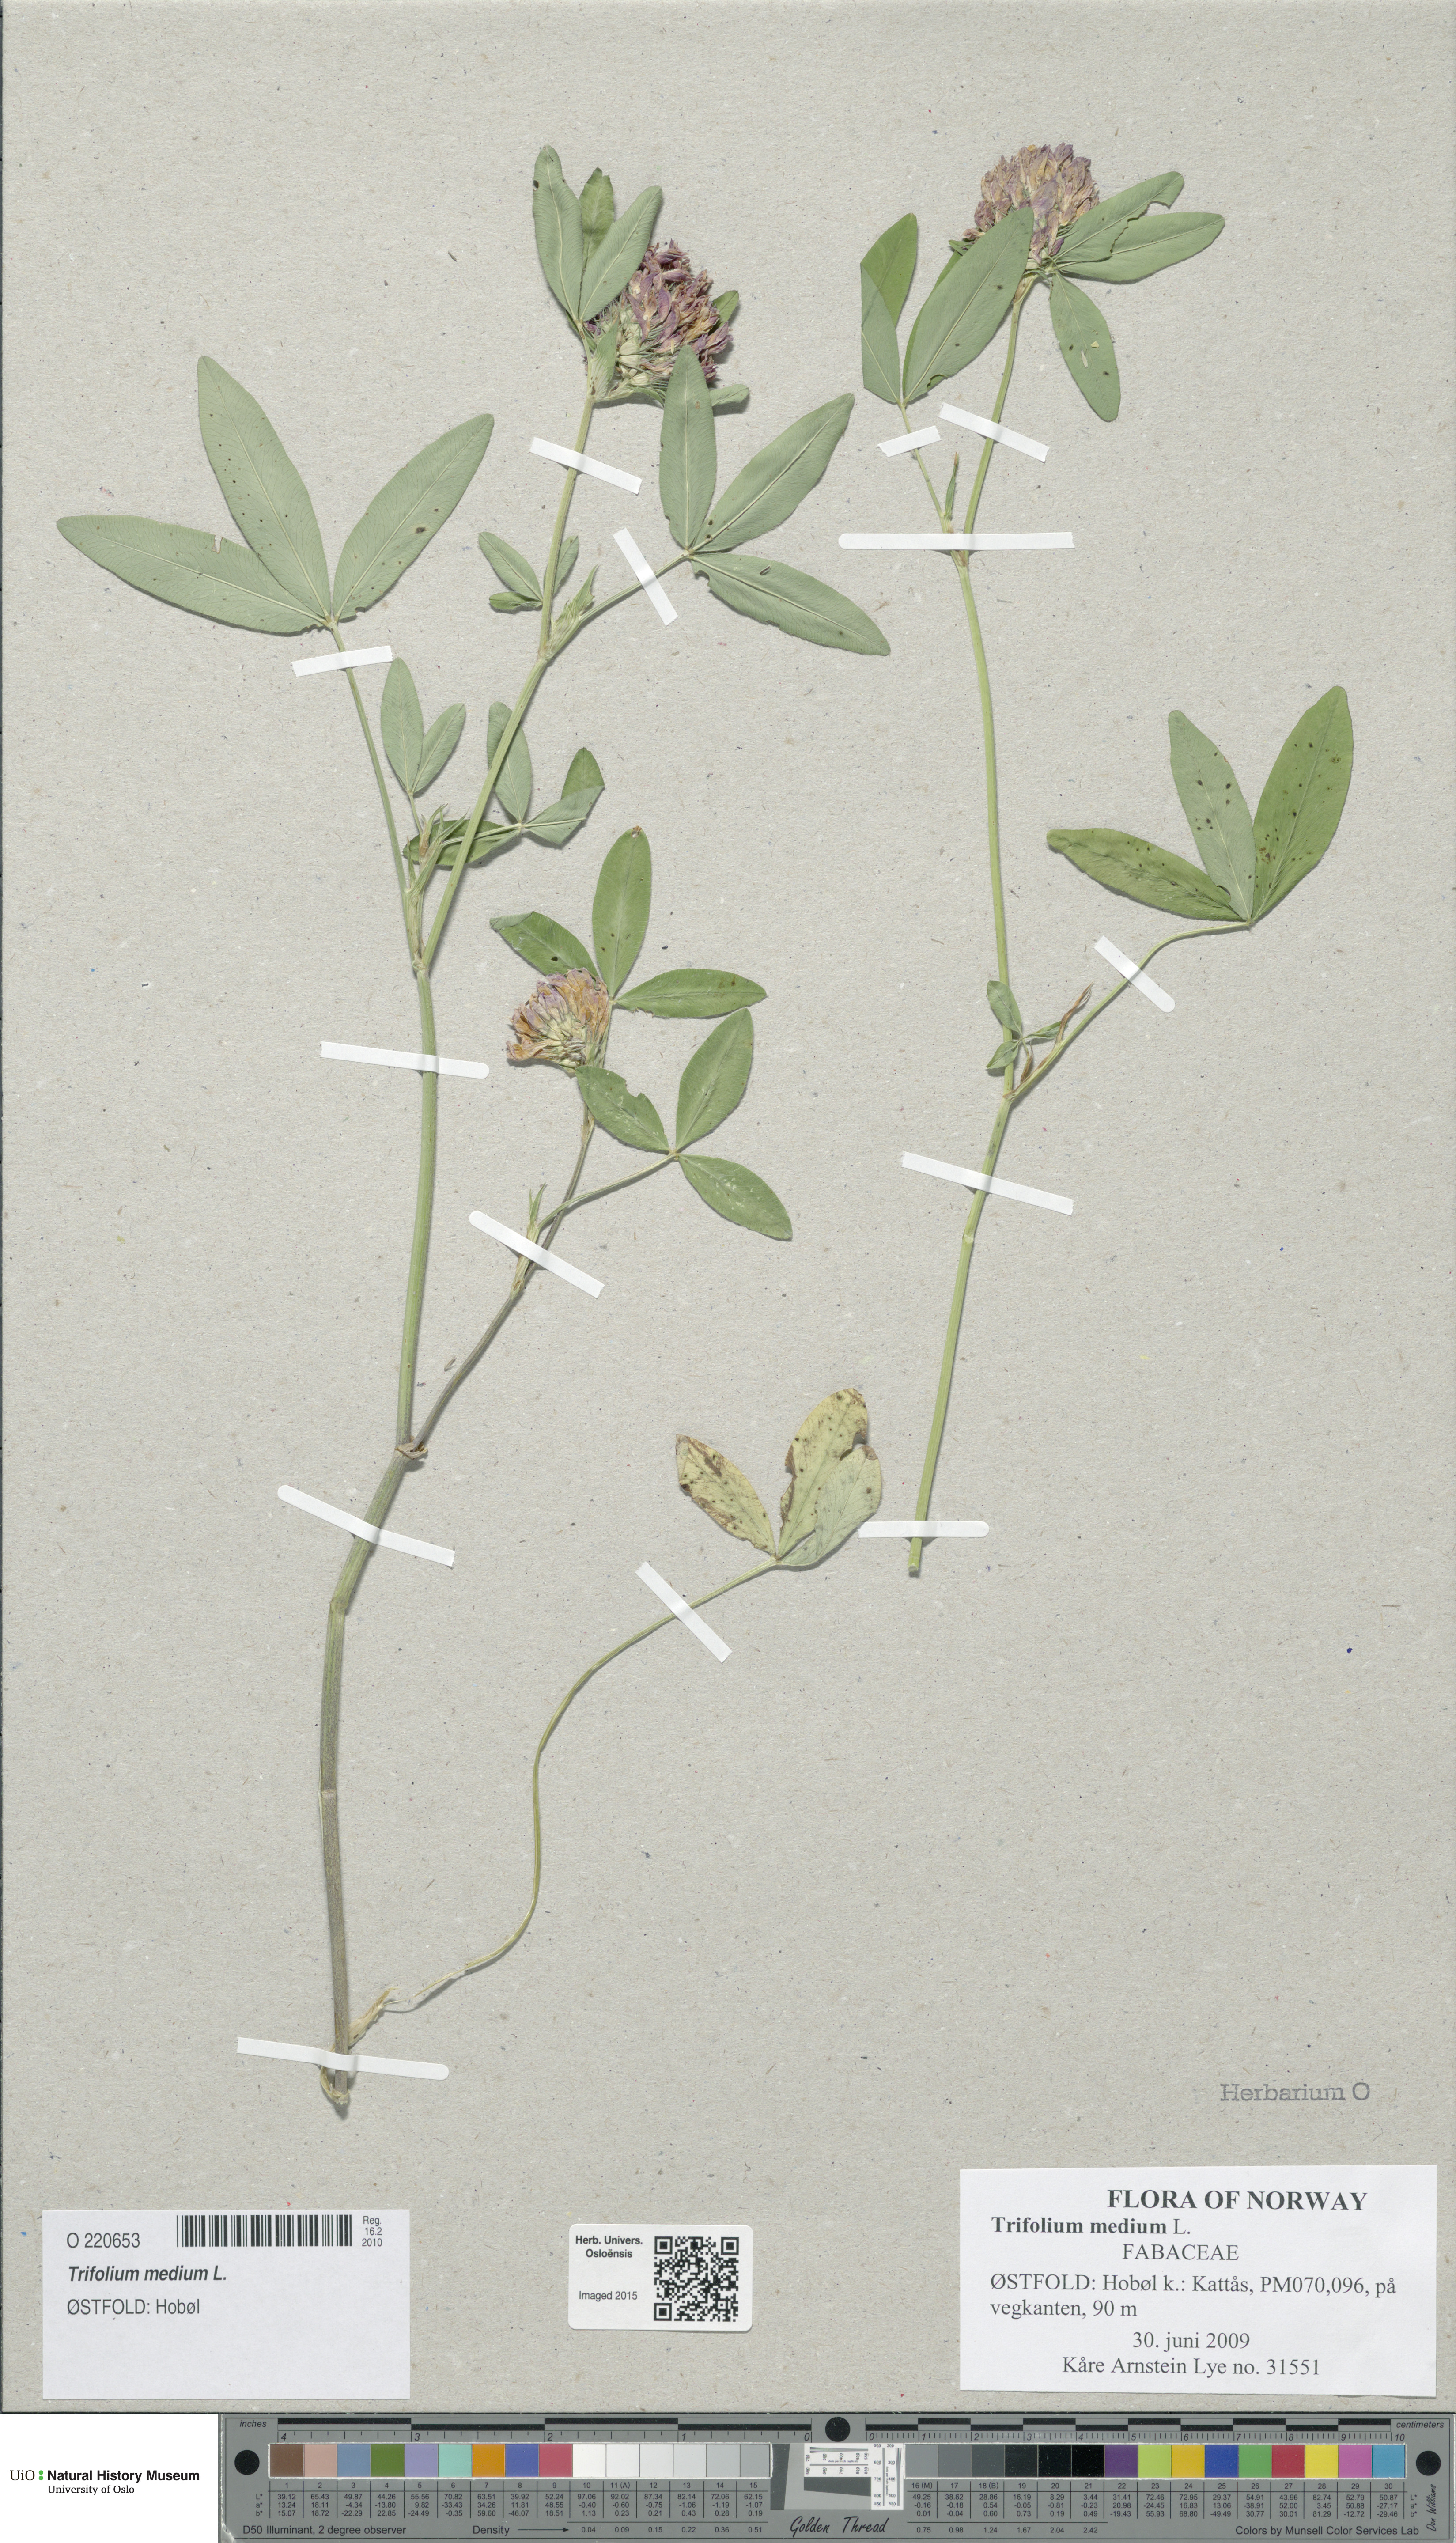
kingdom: Plantae
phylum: Tracheophyta
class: Magnoliopsida
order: Fabales
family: Fabaceae
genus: Trifolium
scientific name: Trifolium medium
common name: Zigzag clover
